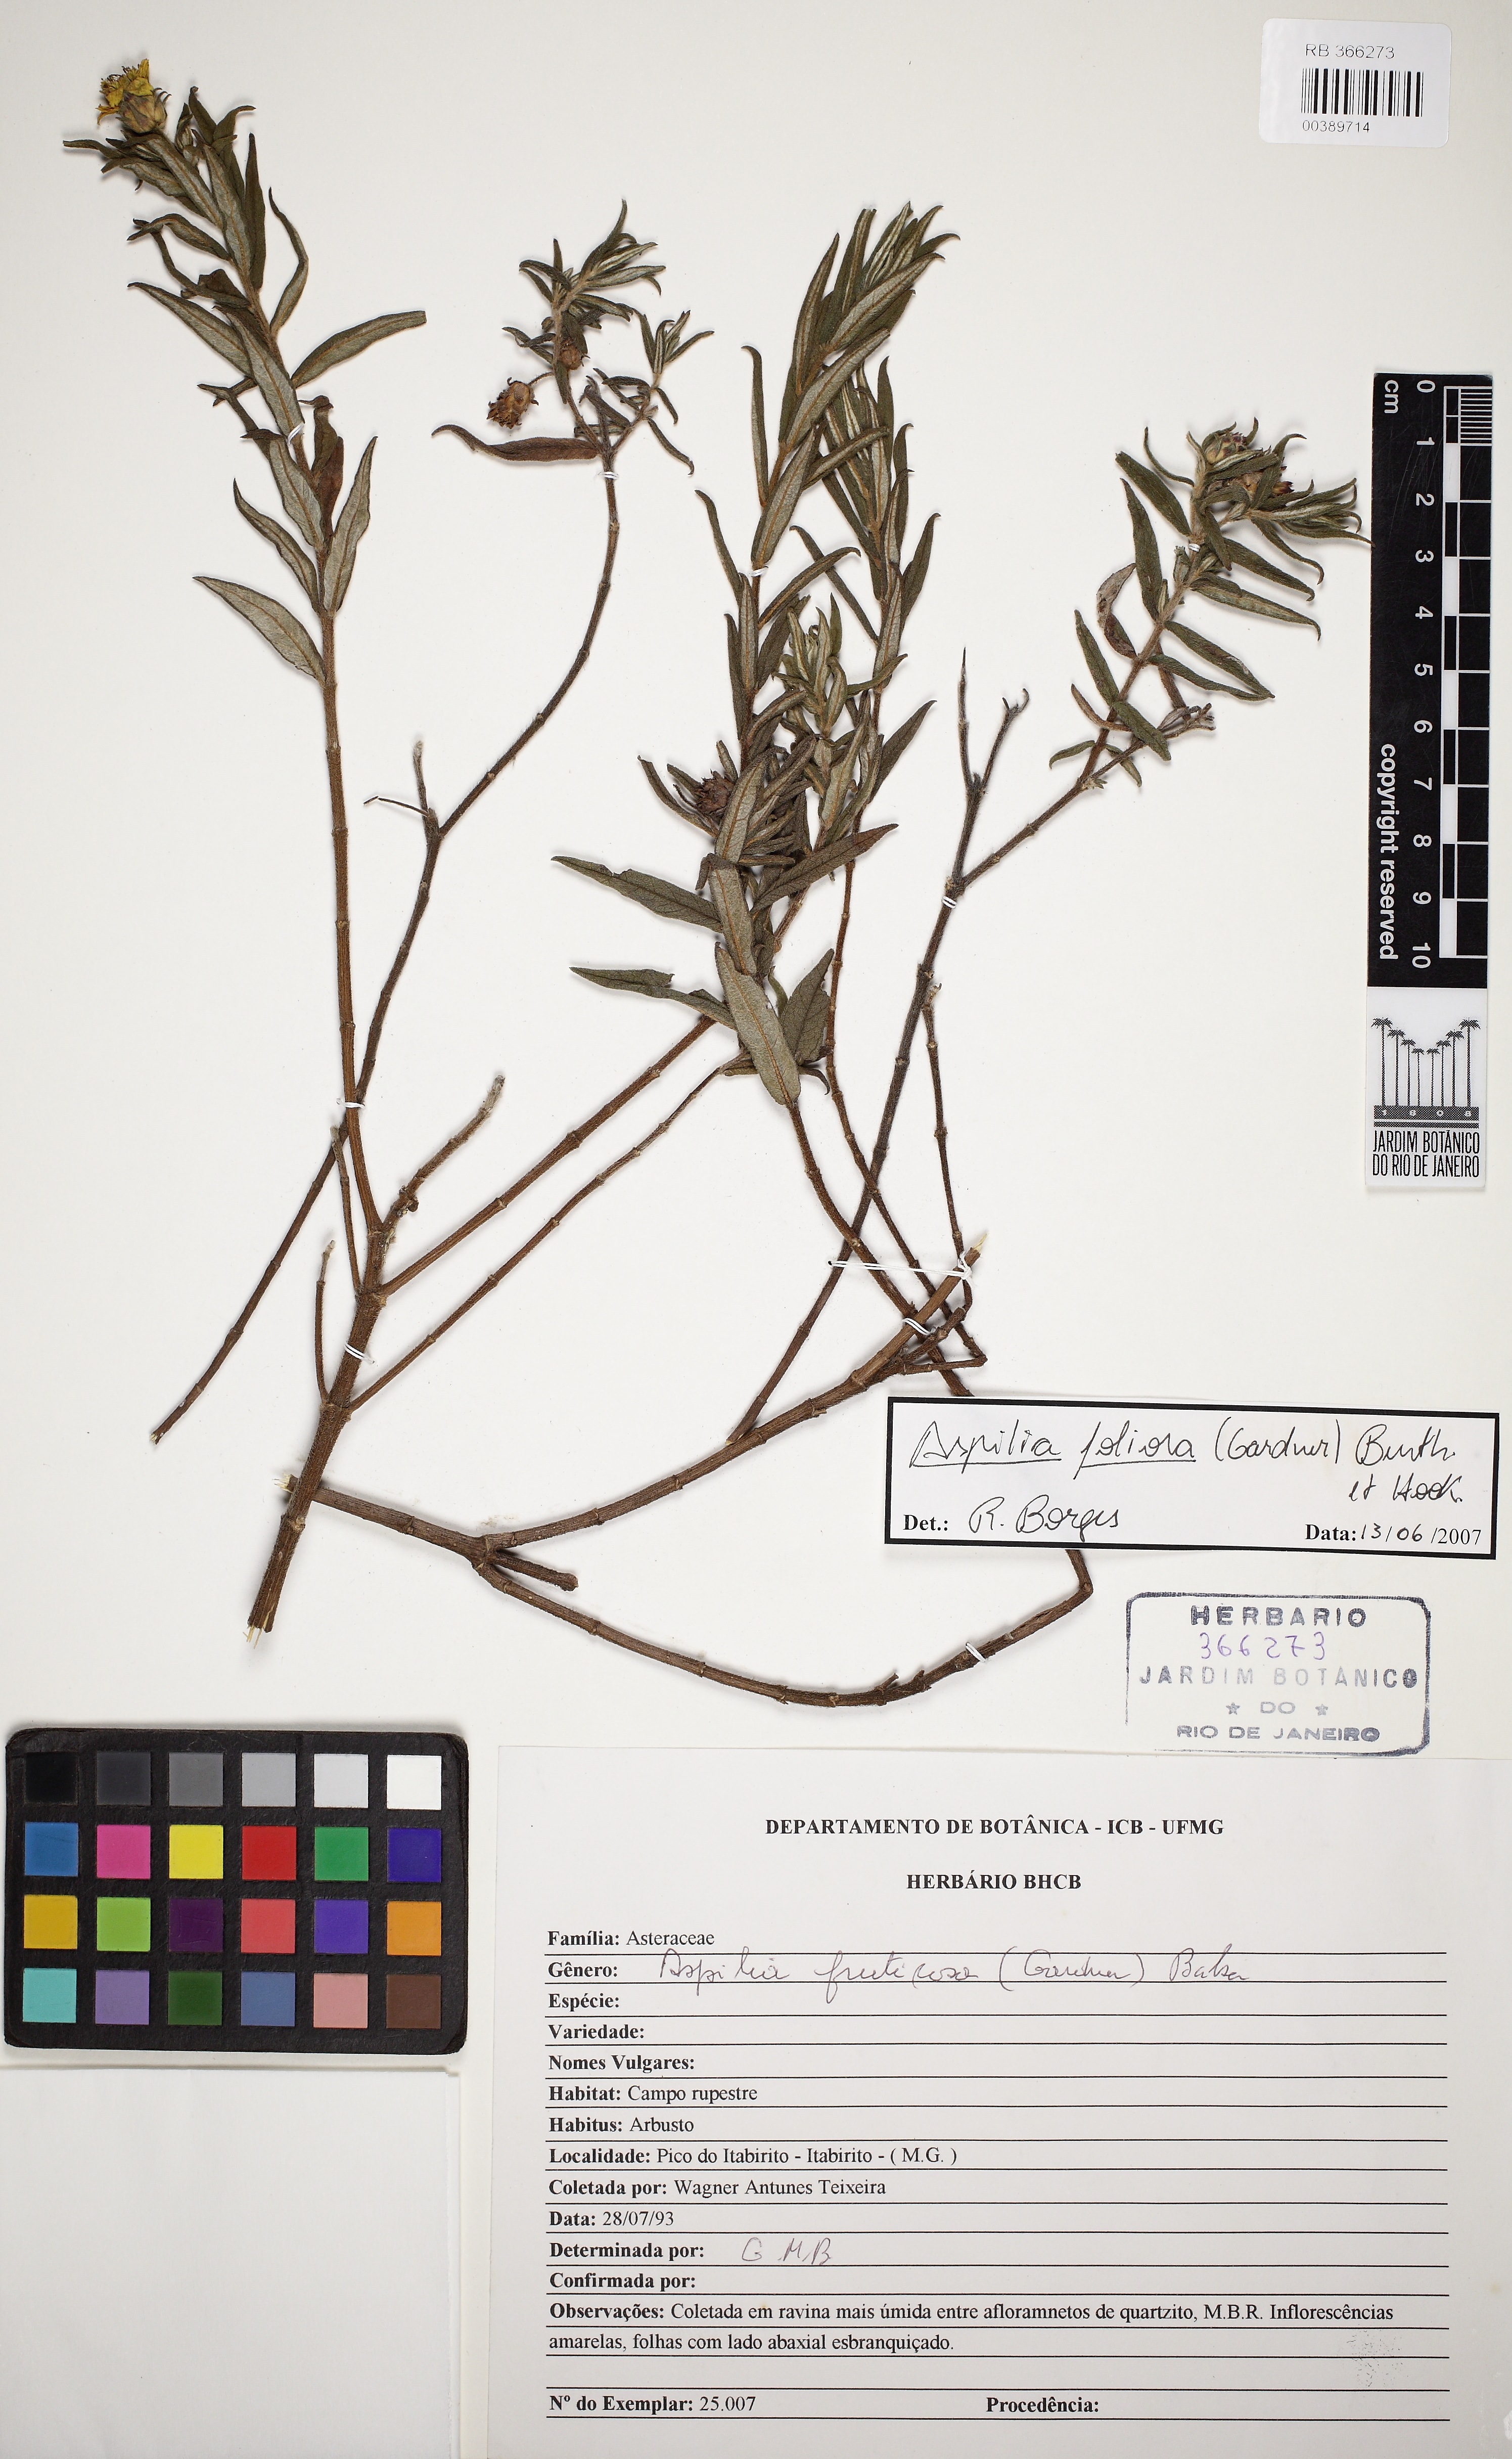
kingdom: Plantae
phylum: Tracheophyta
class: Magnoliopsida
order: Asterales
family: Asteraceae
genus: Aspilia
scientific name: Aspilia foliosa
